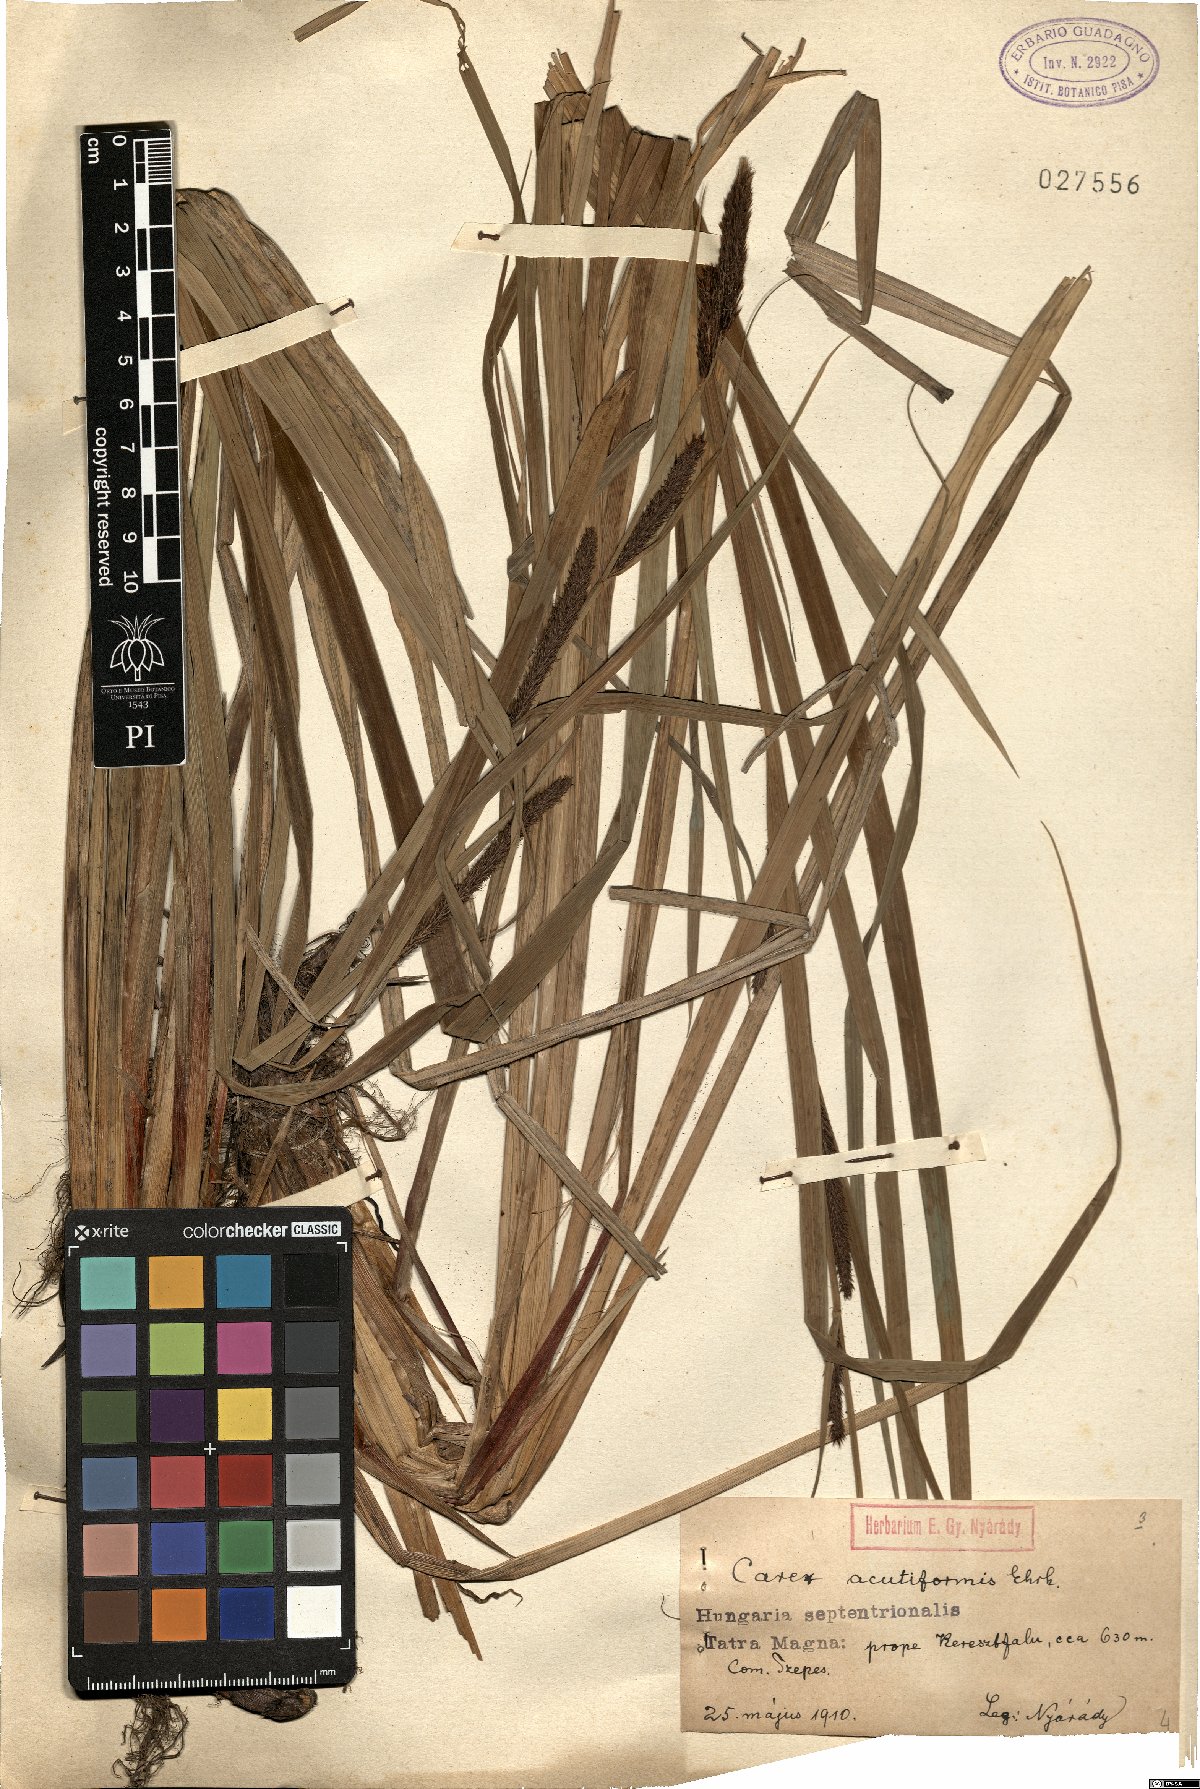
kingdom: Plantae
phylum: Tracheophyta
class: Liliopsida
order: Poales
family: Cyperaceae
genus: Carex
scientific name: Carex acutiformis
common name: Lesser pond-sedge
